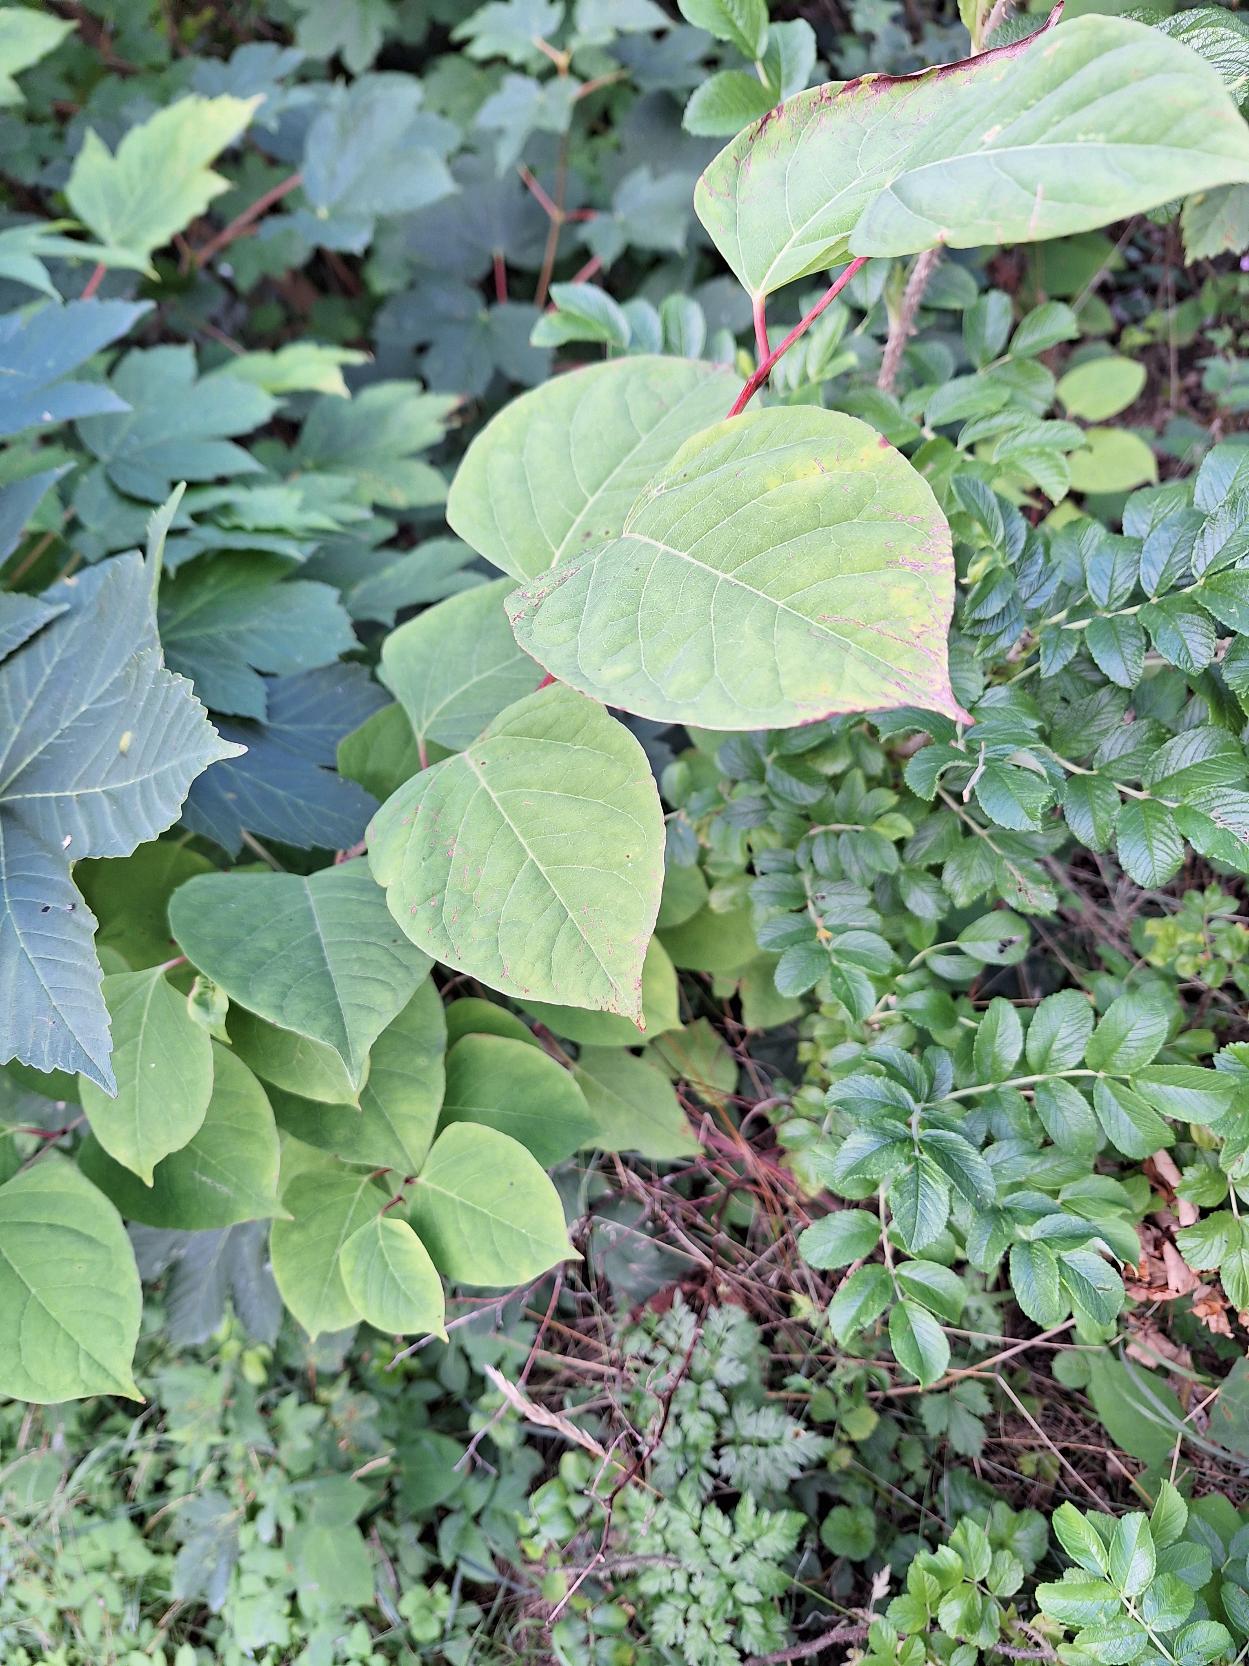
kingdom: Plantae
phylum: Tracheophyta
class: Magnoliopsida
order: Caryophyllales
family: Polygonaceae
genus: Reynoutria
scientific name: Reynoutria japonica
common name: Japan-pileurt
